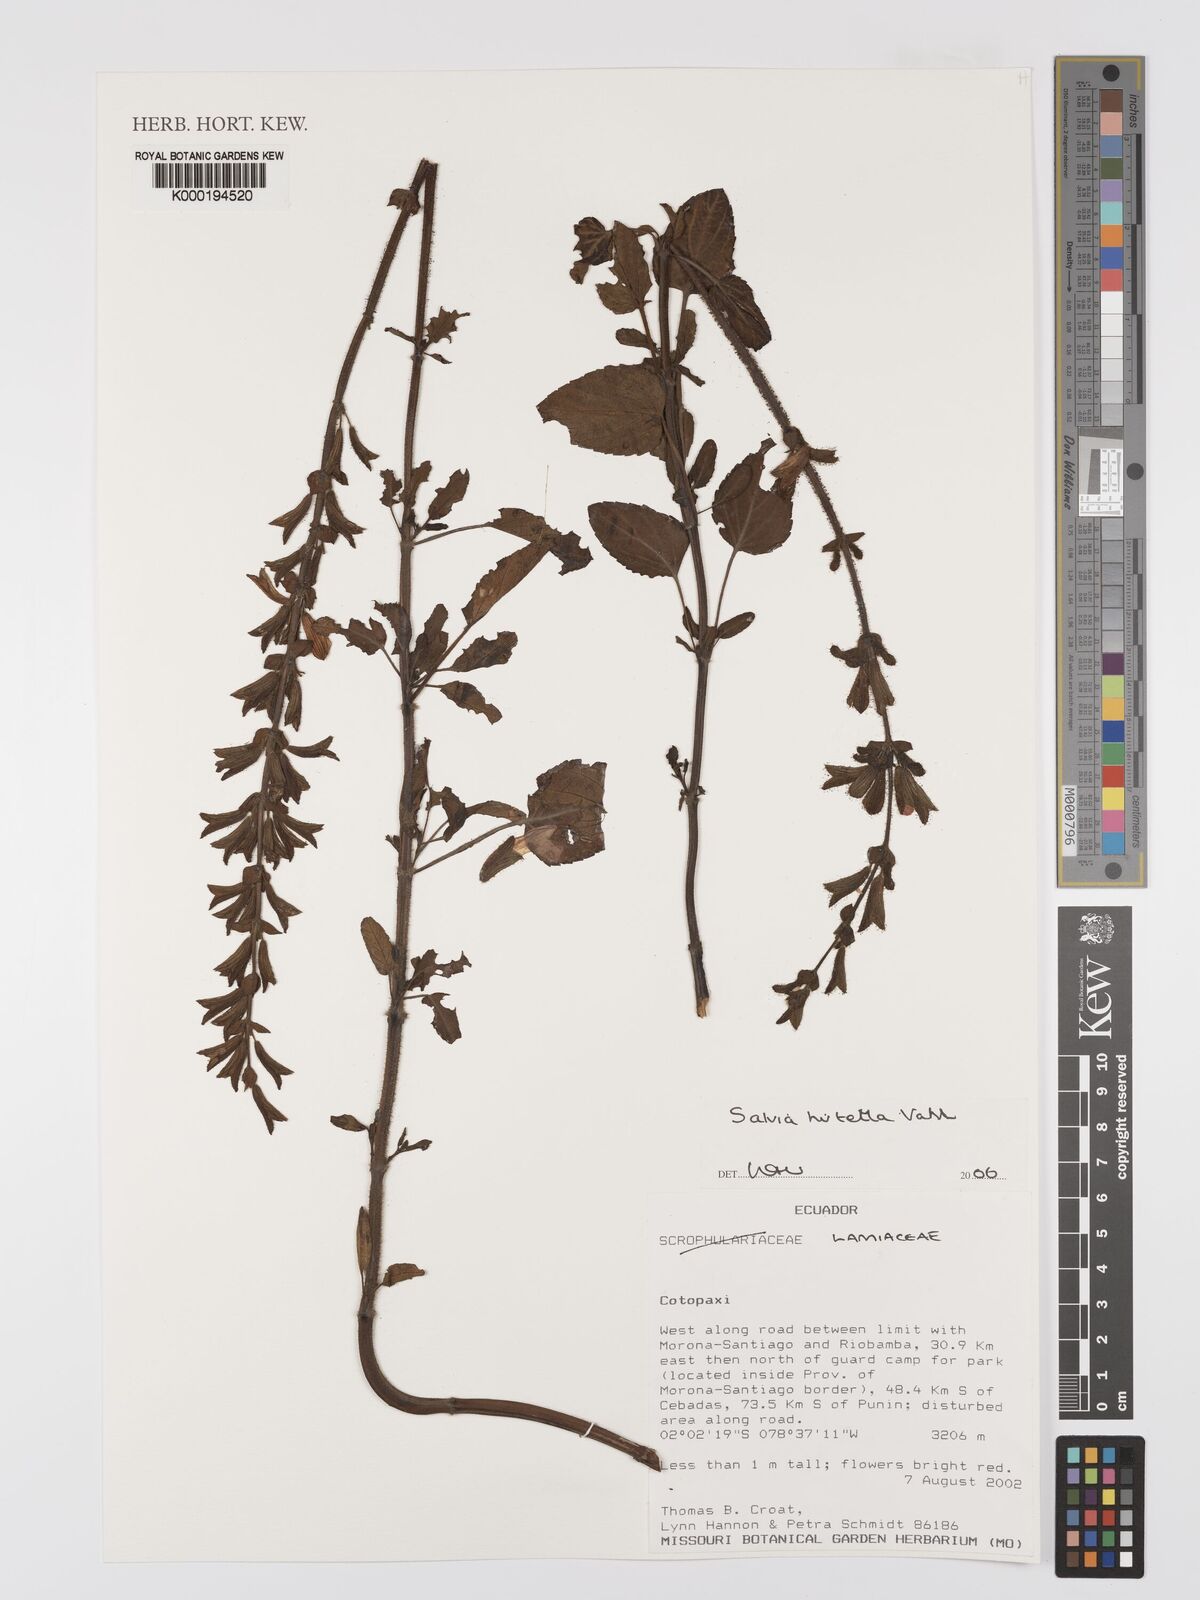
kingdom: Plantae
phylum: Tracheophyta
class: Magnoliopsida
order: Lamiales
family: Lamiaceae
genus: Salvia
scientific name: Salvia hirtella
